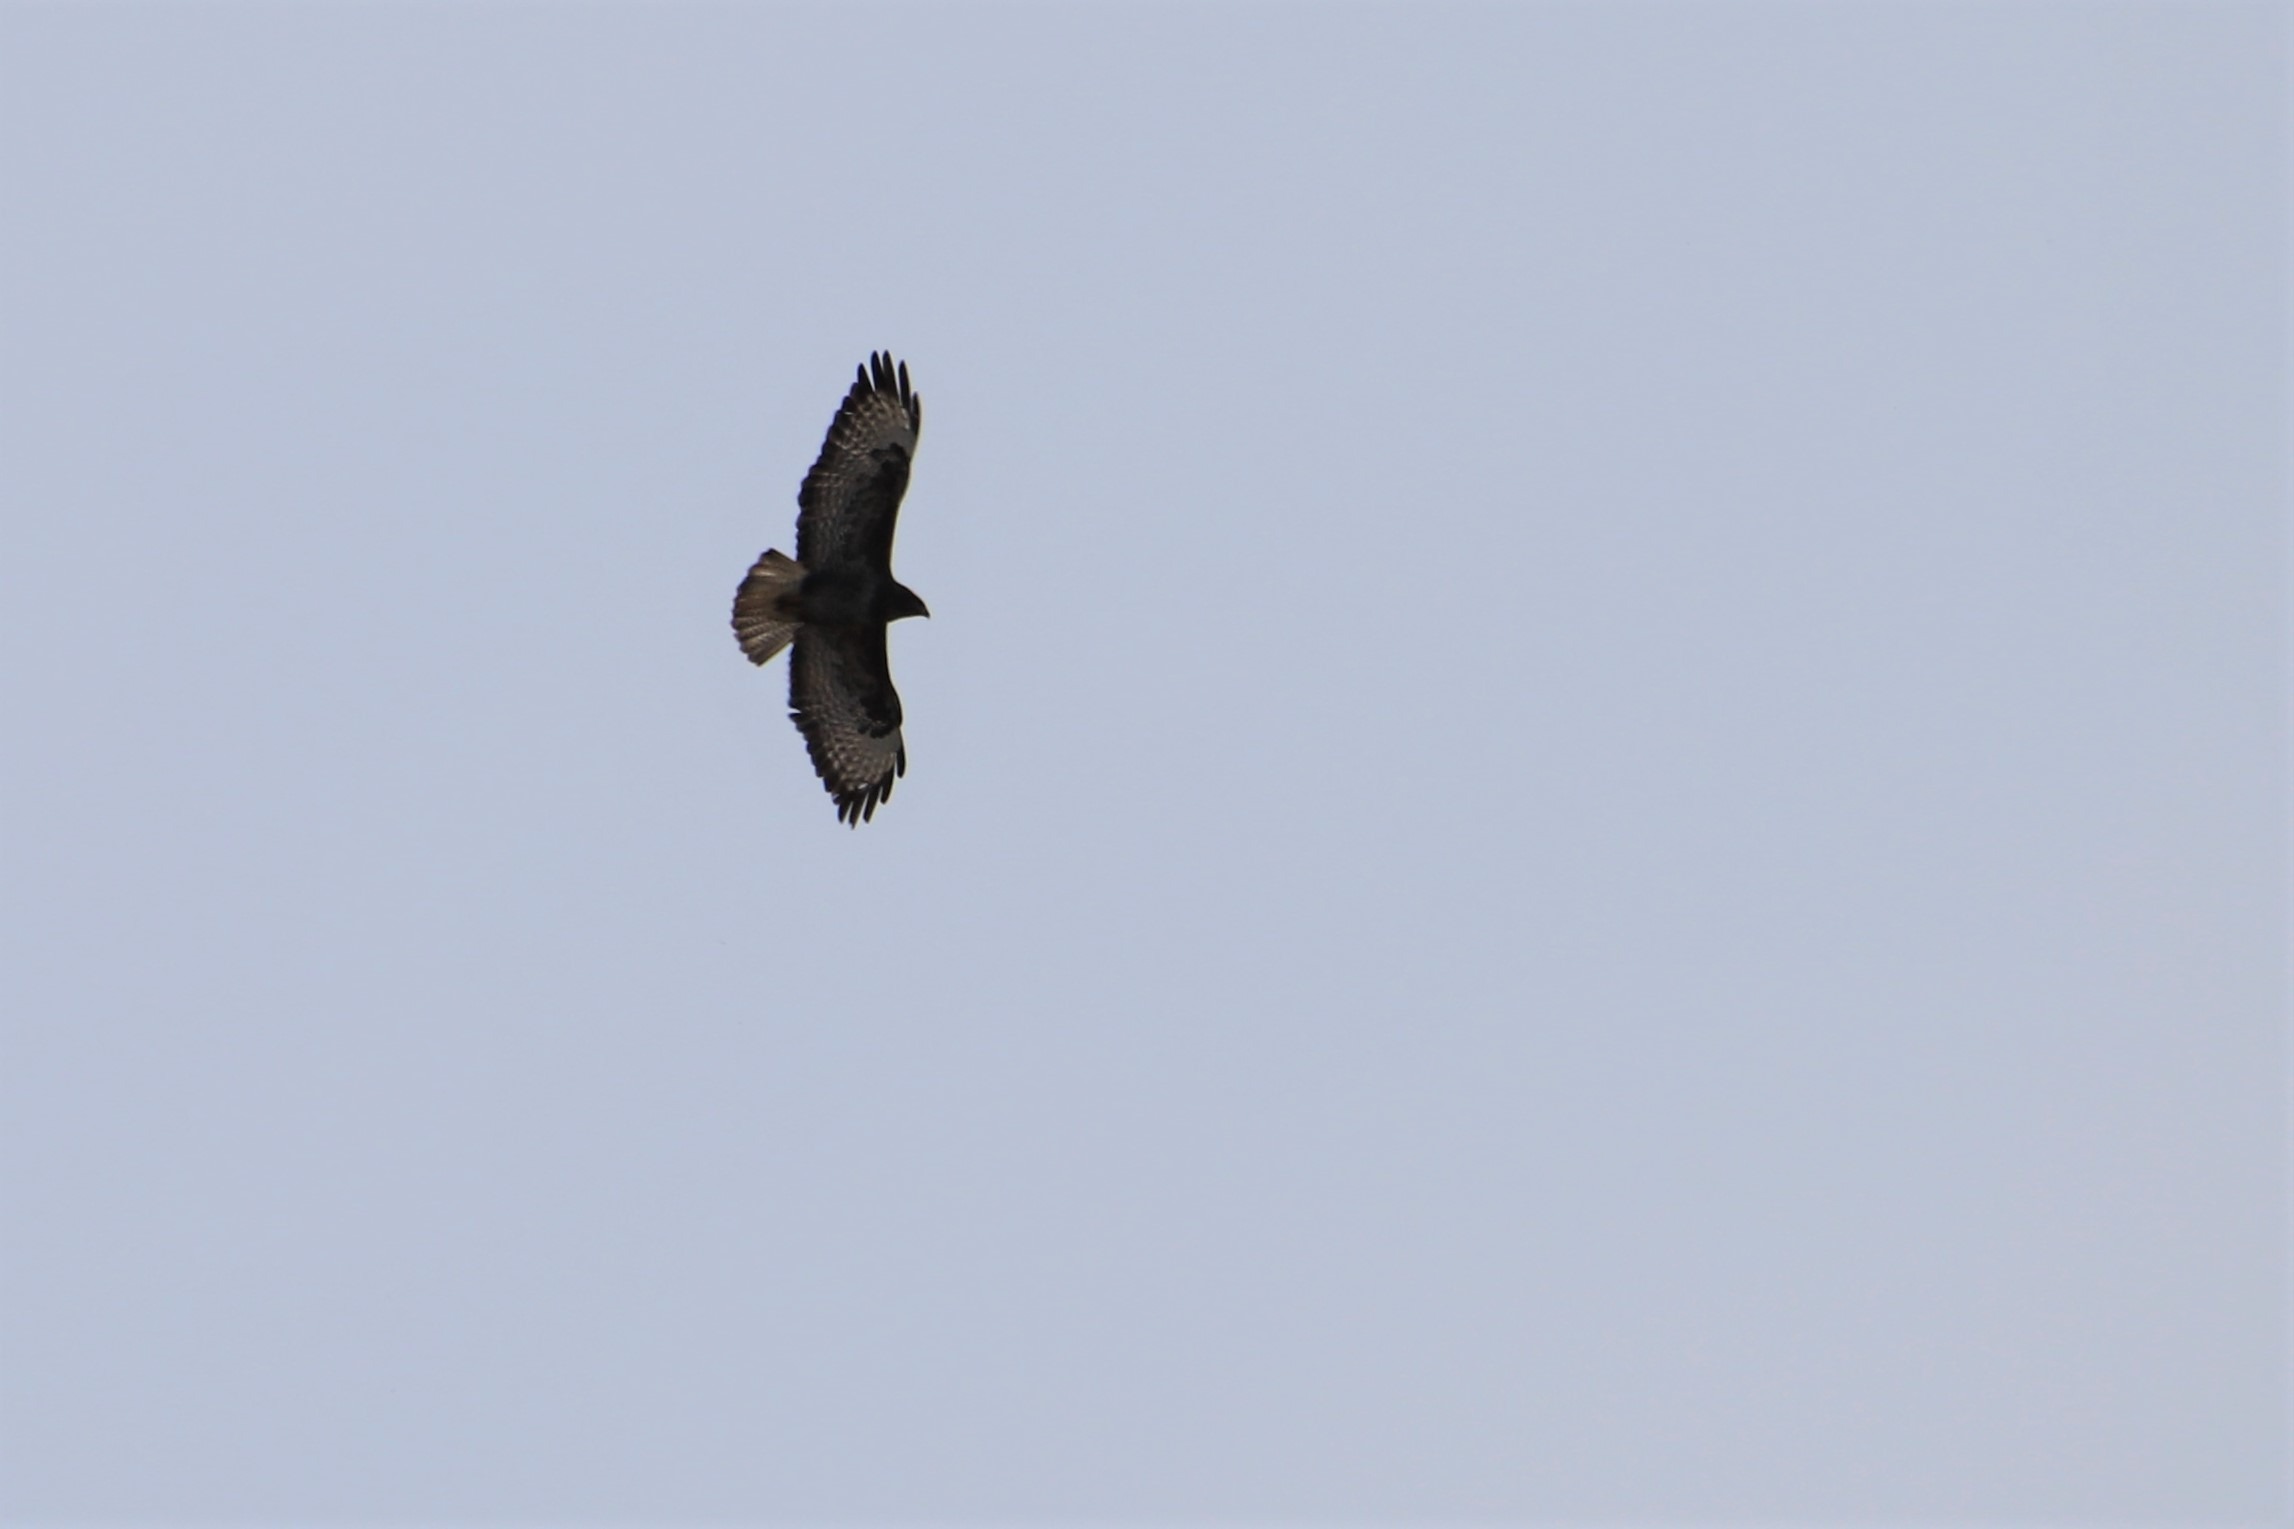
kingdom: Animalia
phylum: Chordata
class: Aves
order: Accipitriformes
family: Accipitridae
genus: Buteo
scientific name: Buteo buteo
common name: Musvåge
